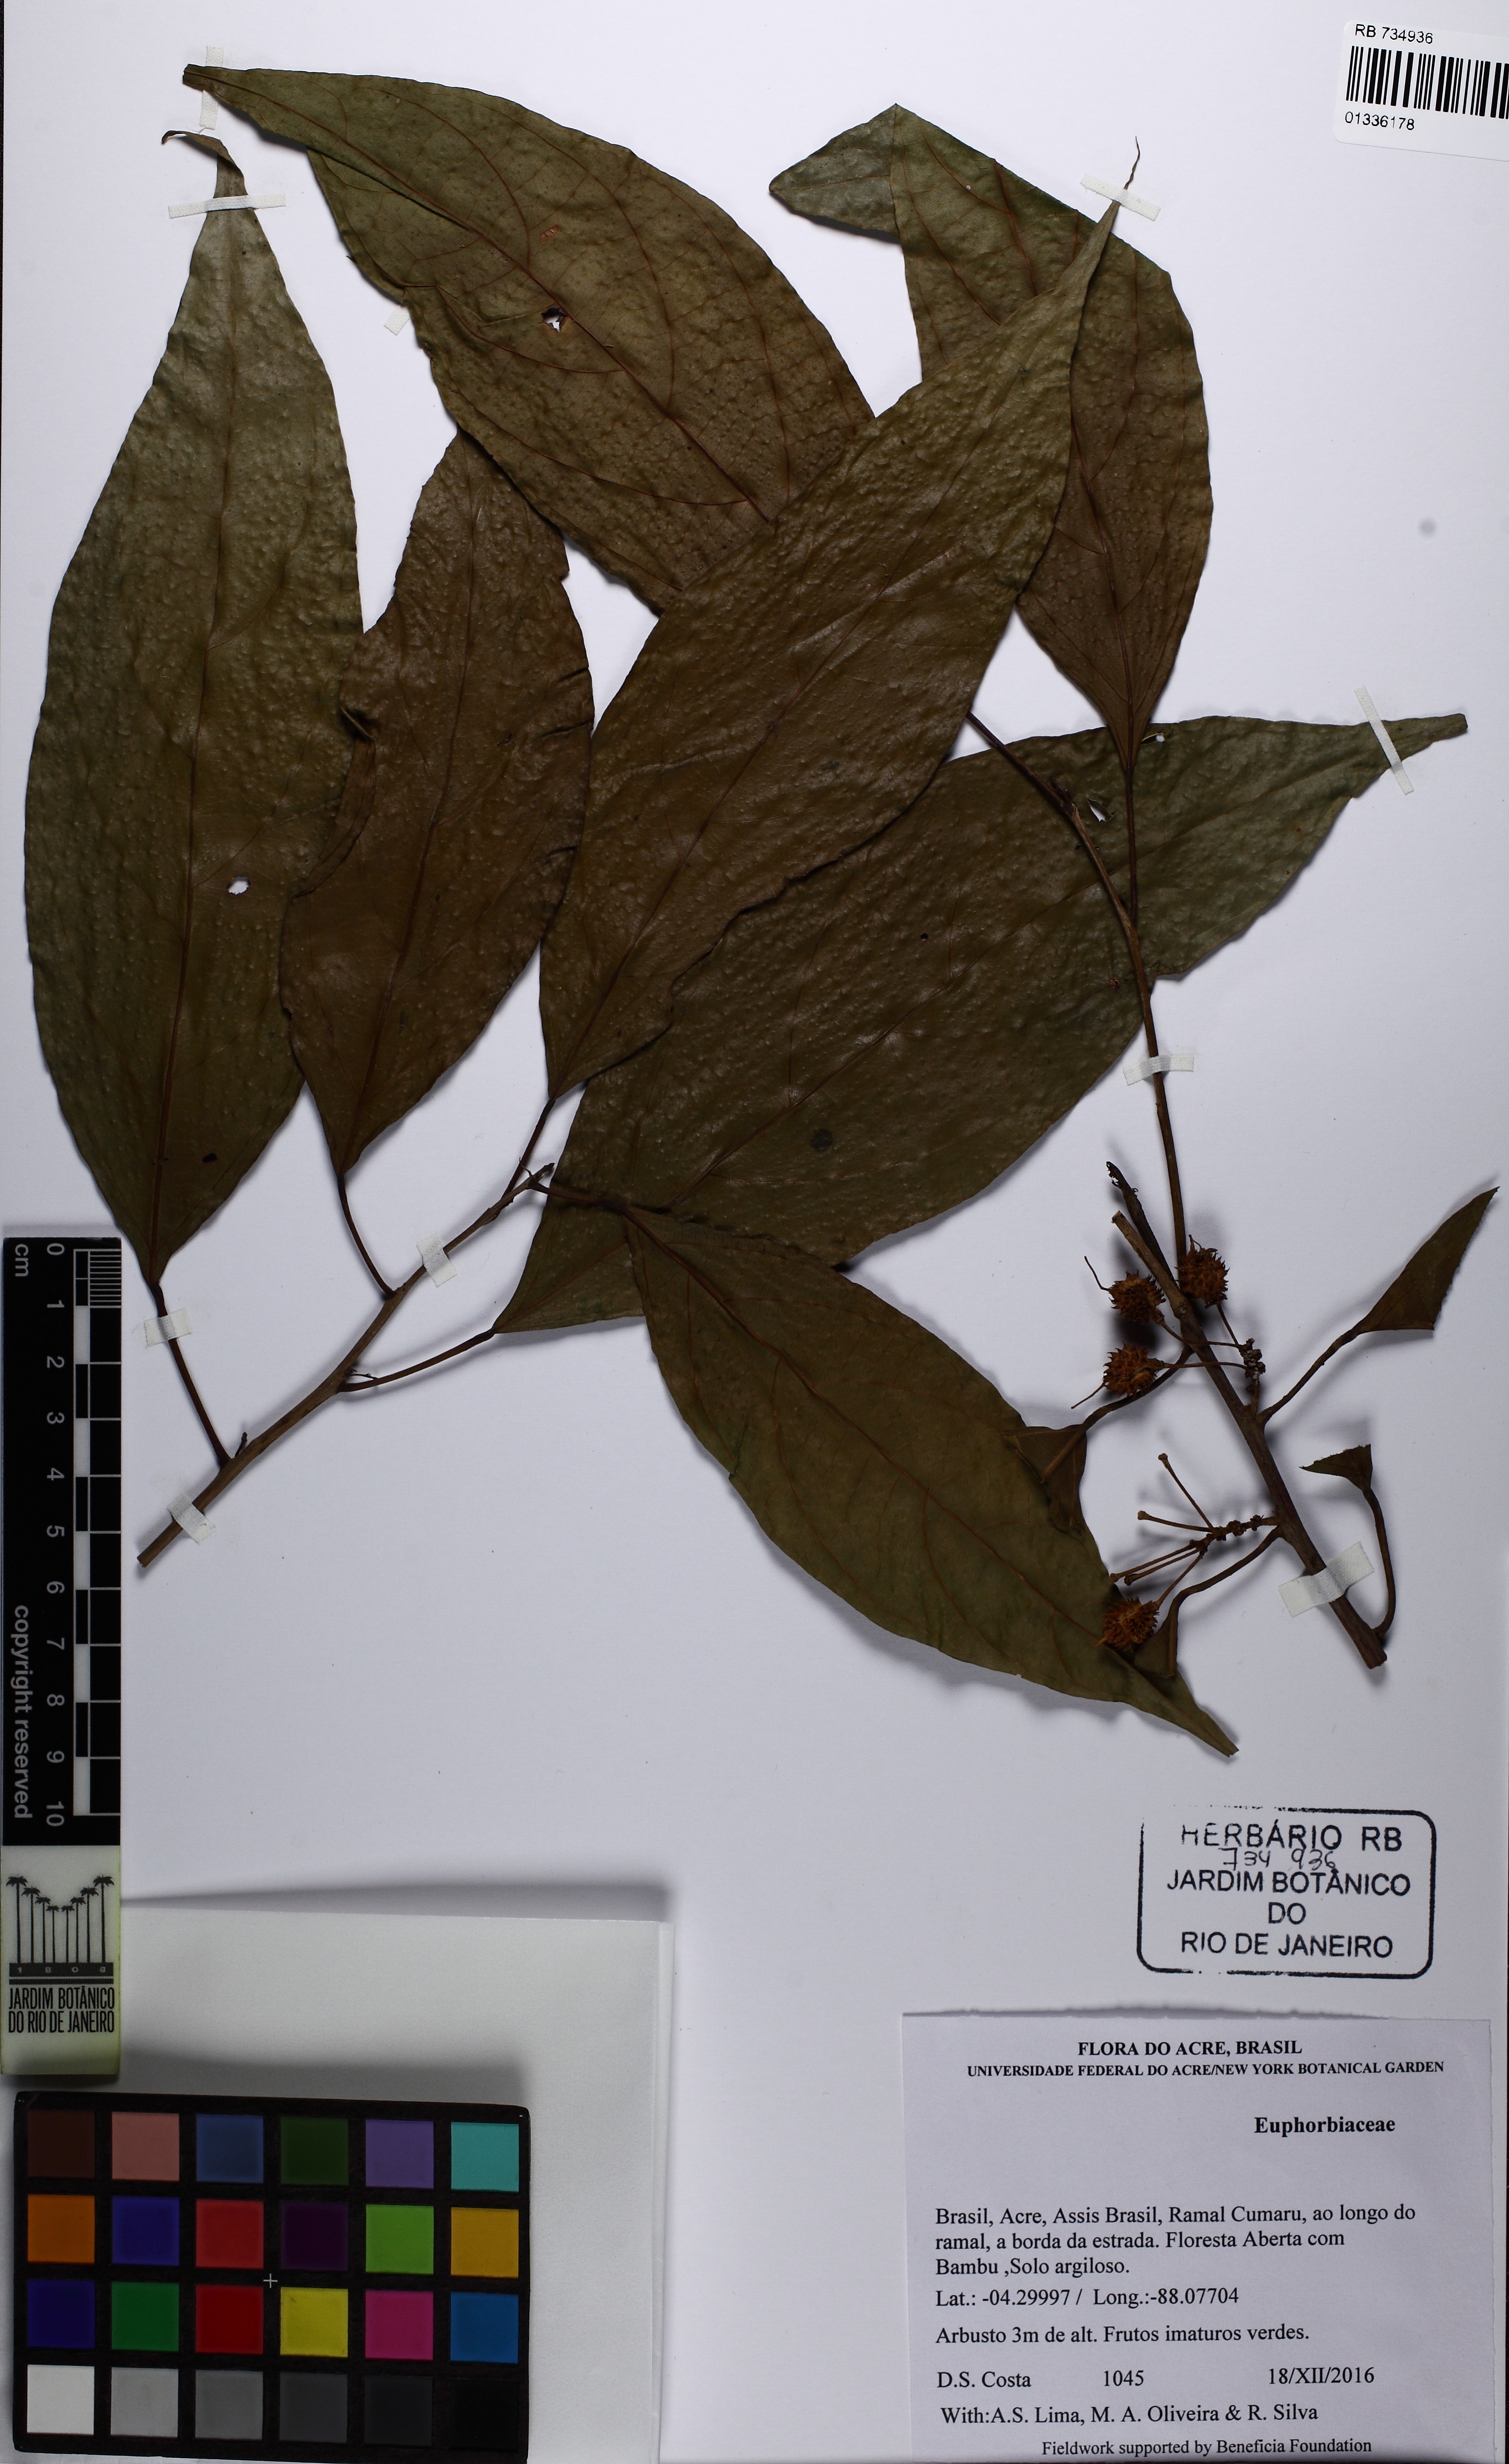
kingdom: Plantae
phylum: Tracheophyta
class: Magnoliopsida
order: Malpighiales
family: Euphorbiaceae
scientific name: Euphorbiaceae
